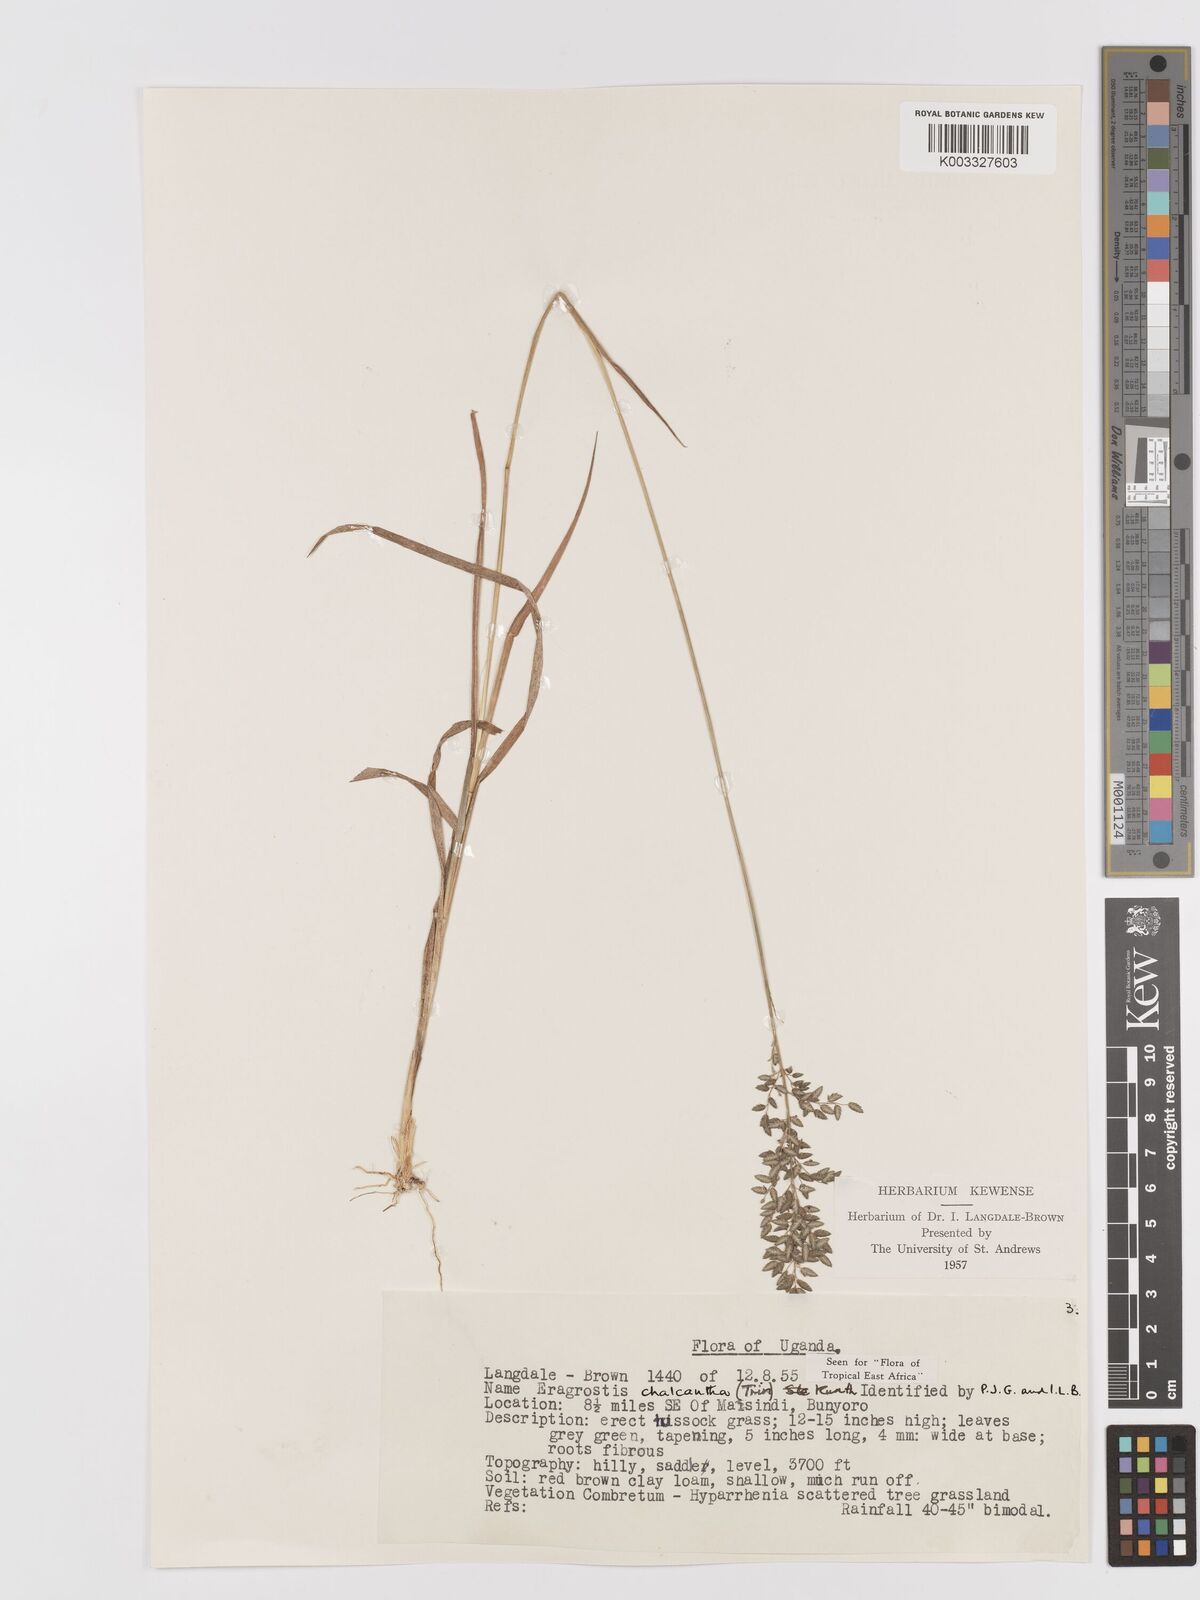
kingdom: Plantae
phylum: Tracheophyta
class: Liliopsida
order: Poales
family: Poaceae
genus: Eragrostis
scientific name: Eragrostis racemosa
